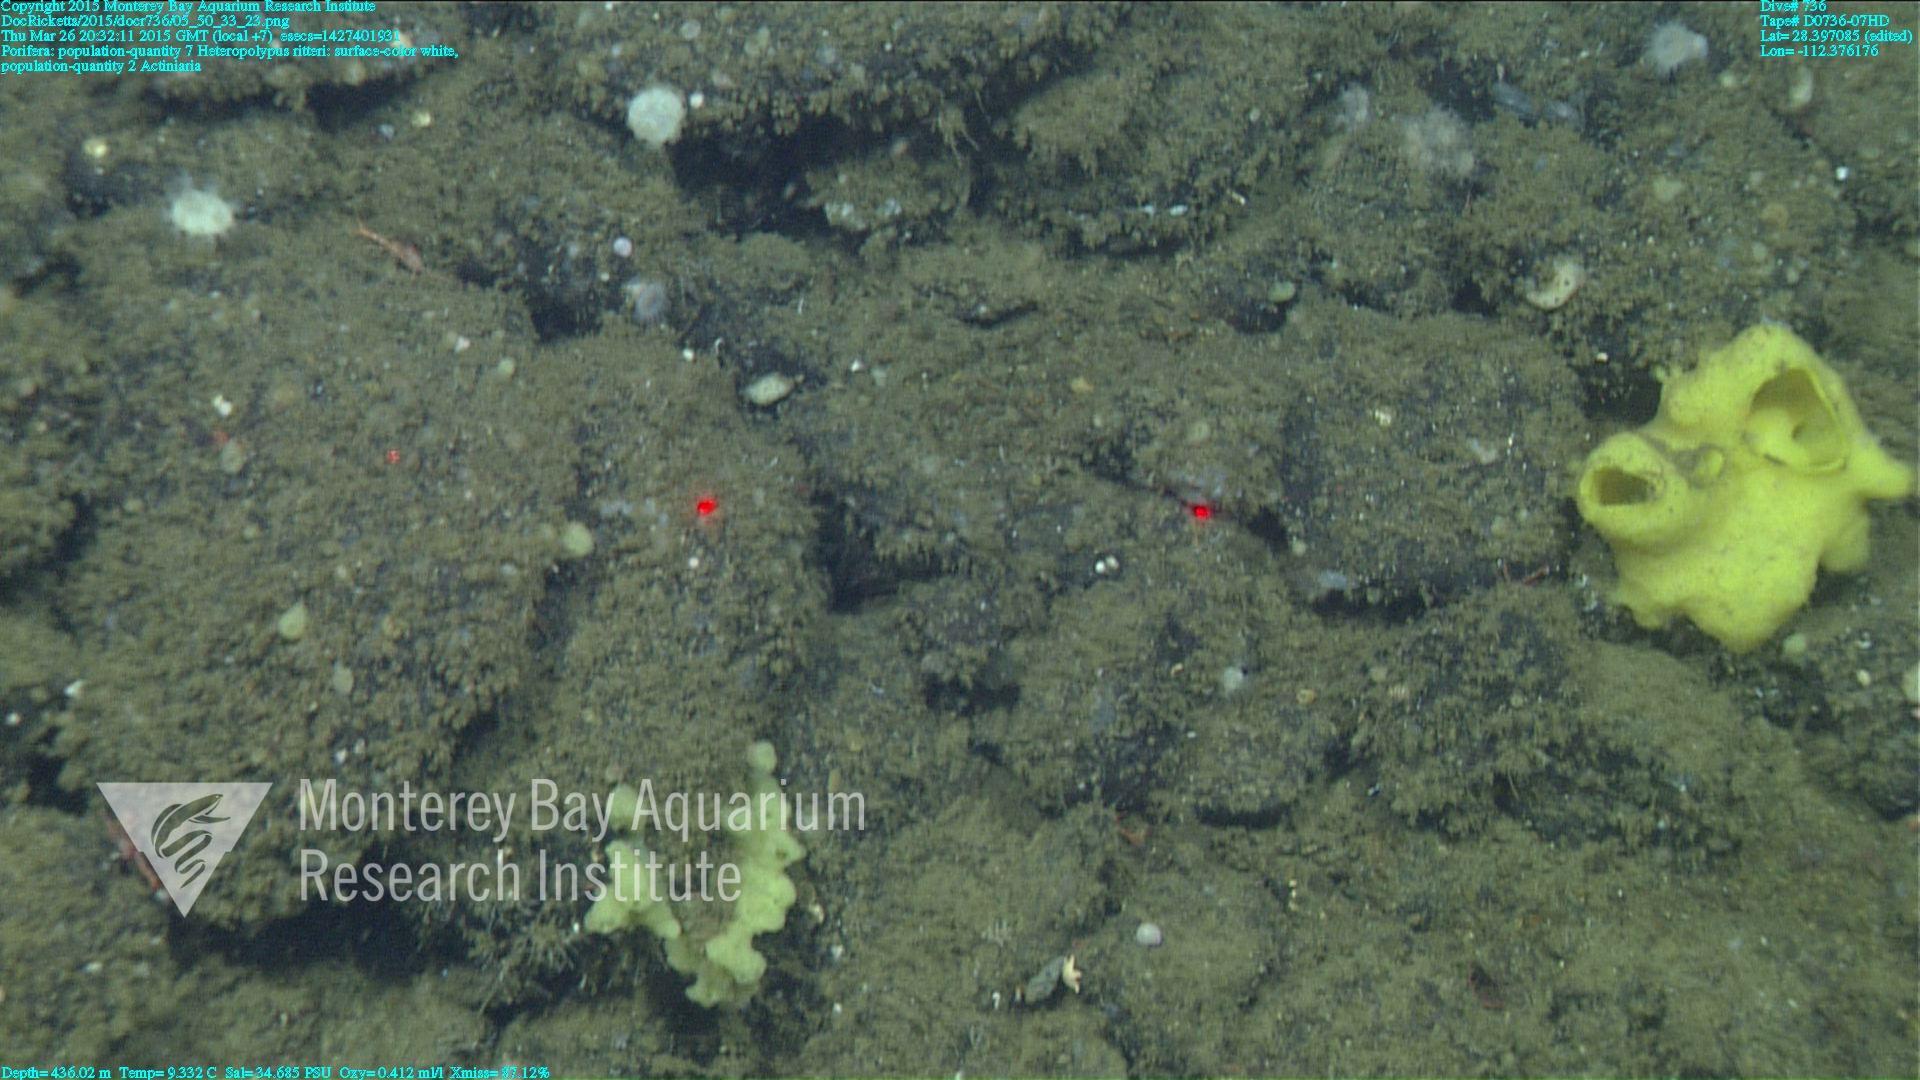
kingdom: Animalia
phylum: Cnidaria
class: Anthozoa
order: Scleralcyonacea
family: Coralliidae
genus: Heteropolypus
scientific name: Heteropolypus ritteri
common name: Ritter's soft coral
